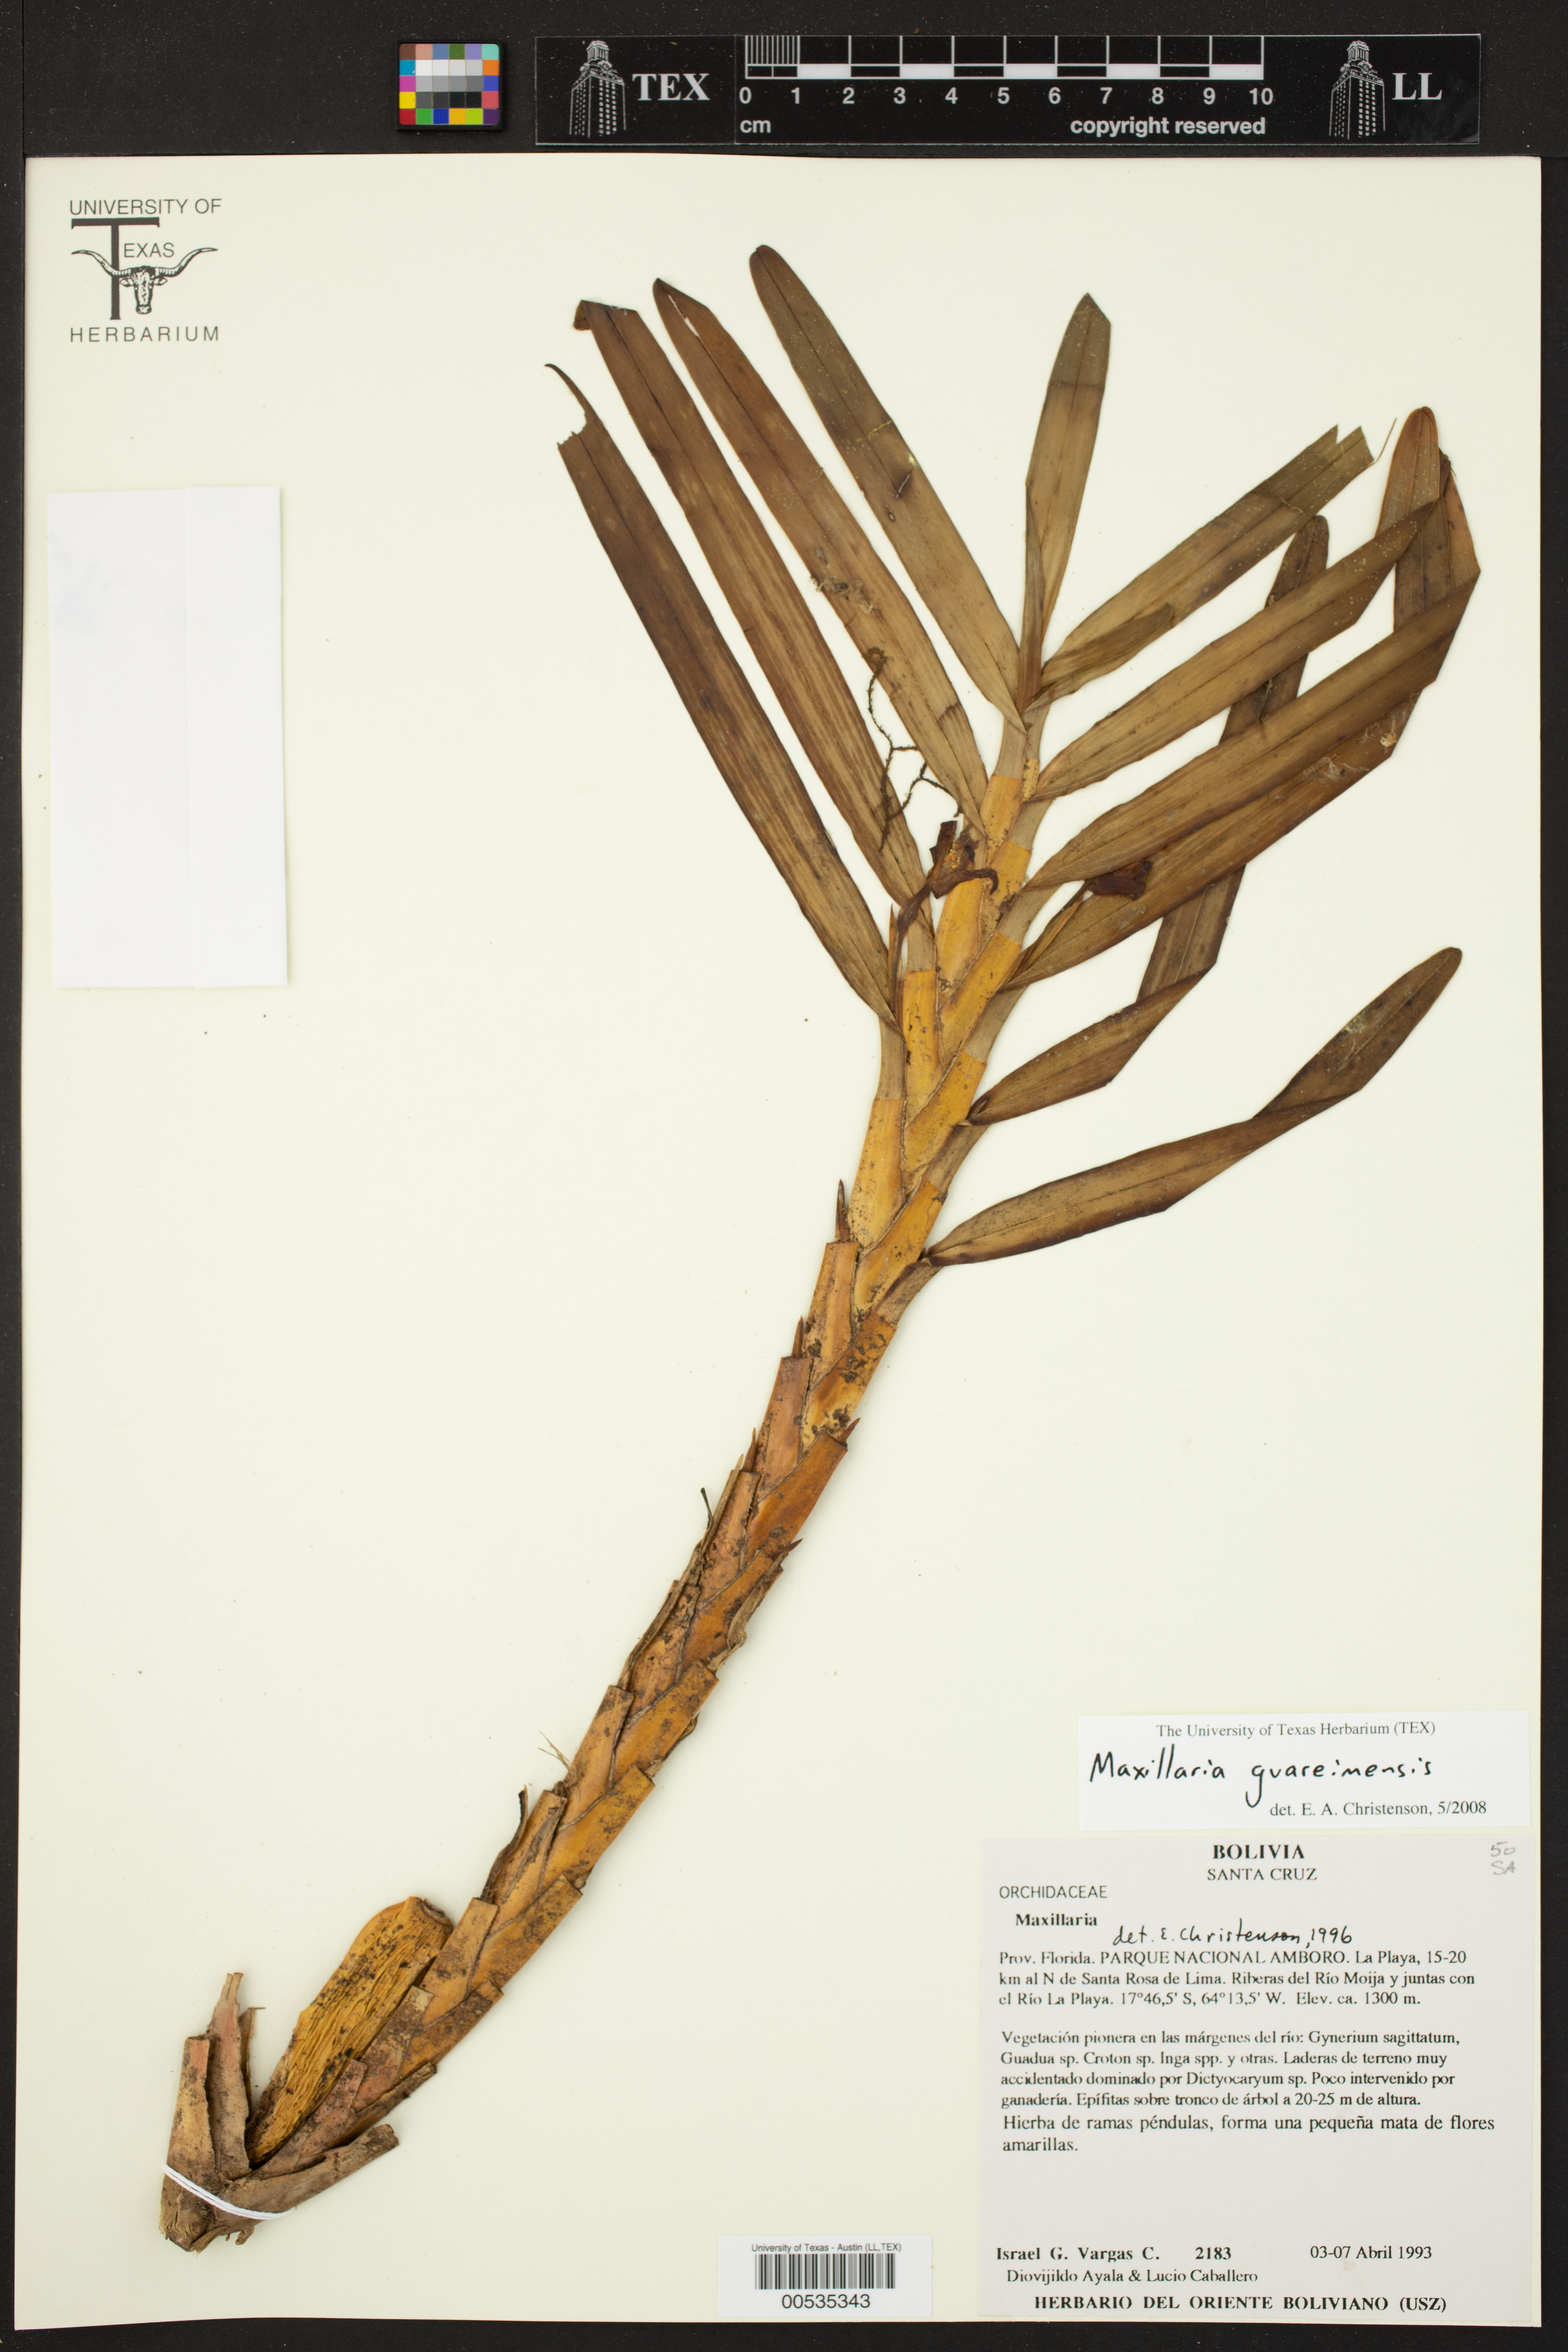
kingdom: Plantae
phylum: Tracheophyta
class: Liliopsida
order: Asparagales
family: Orchidaceae
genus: Maxillaria
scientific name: Maxillaria guareimensis
